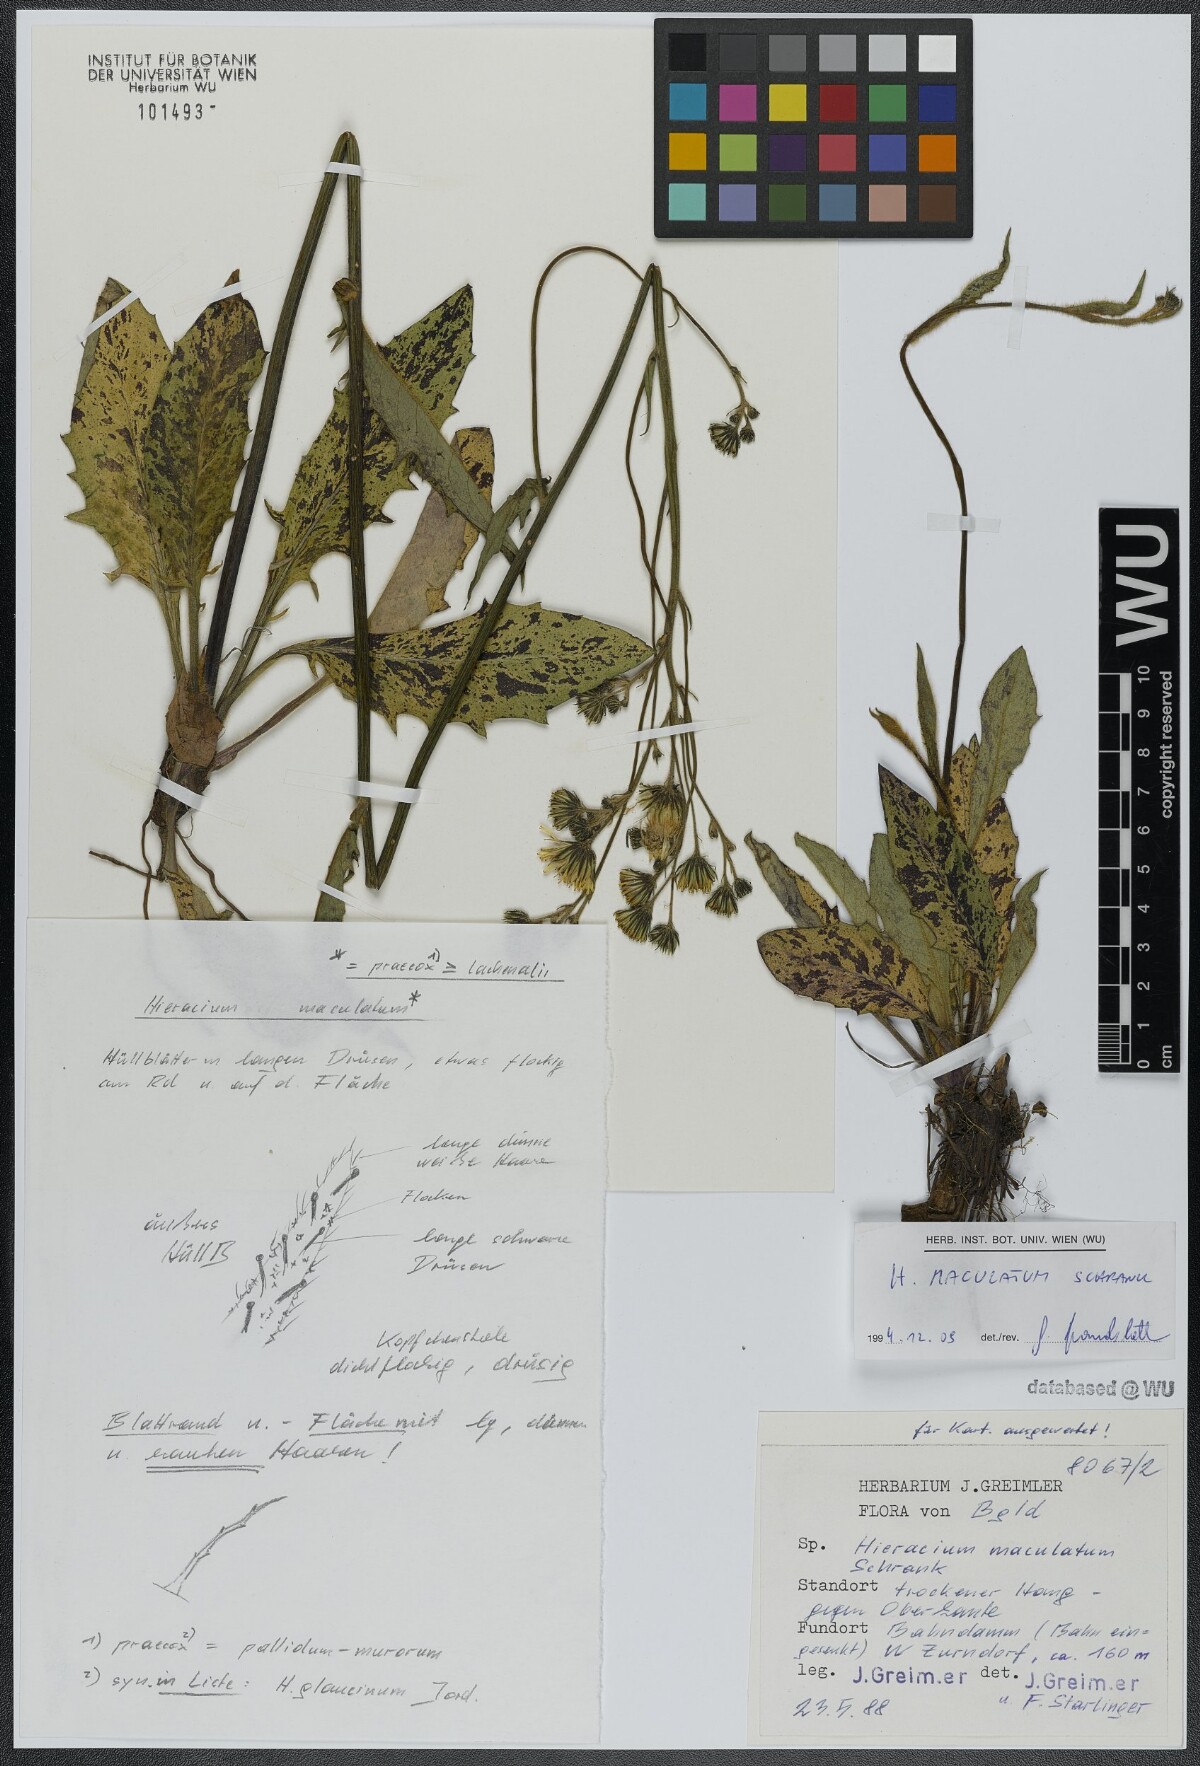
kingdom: Plantae
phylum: Tracheophyta
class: Magnoliopsida
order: Asterales
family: Asteraceae
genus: Hieracium
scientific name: Hieracium maculatum
